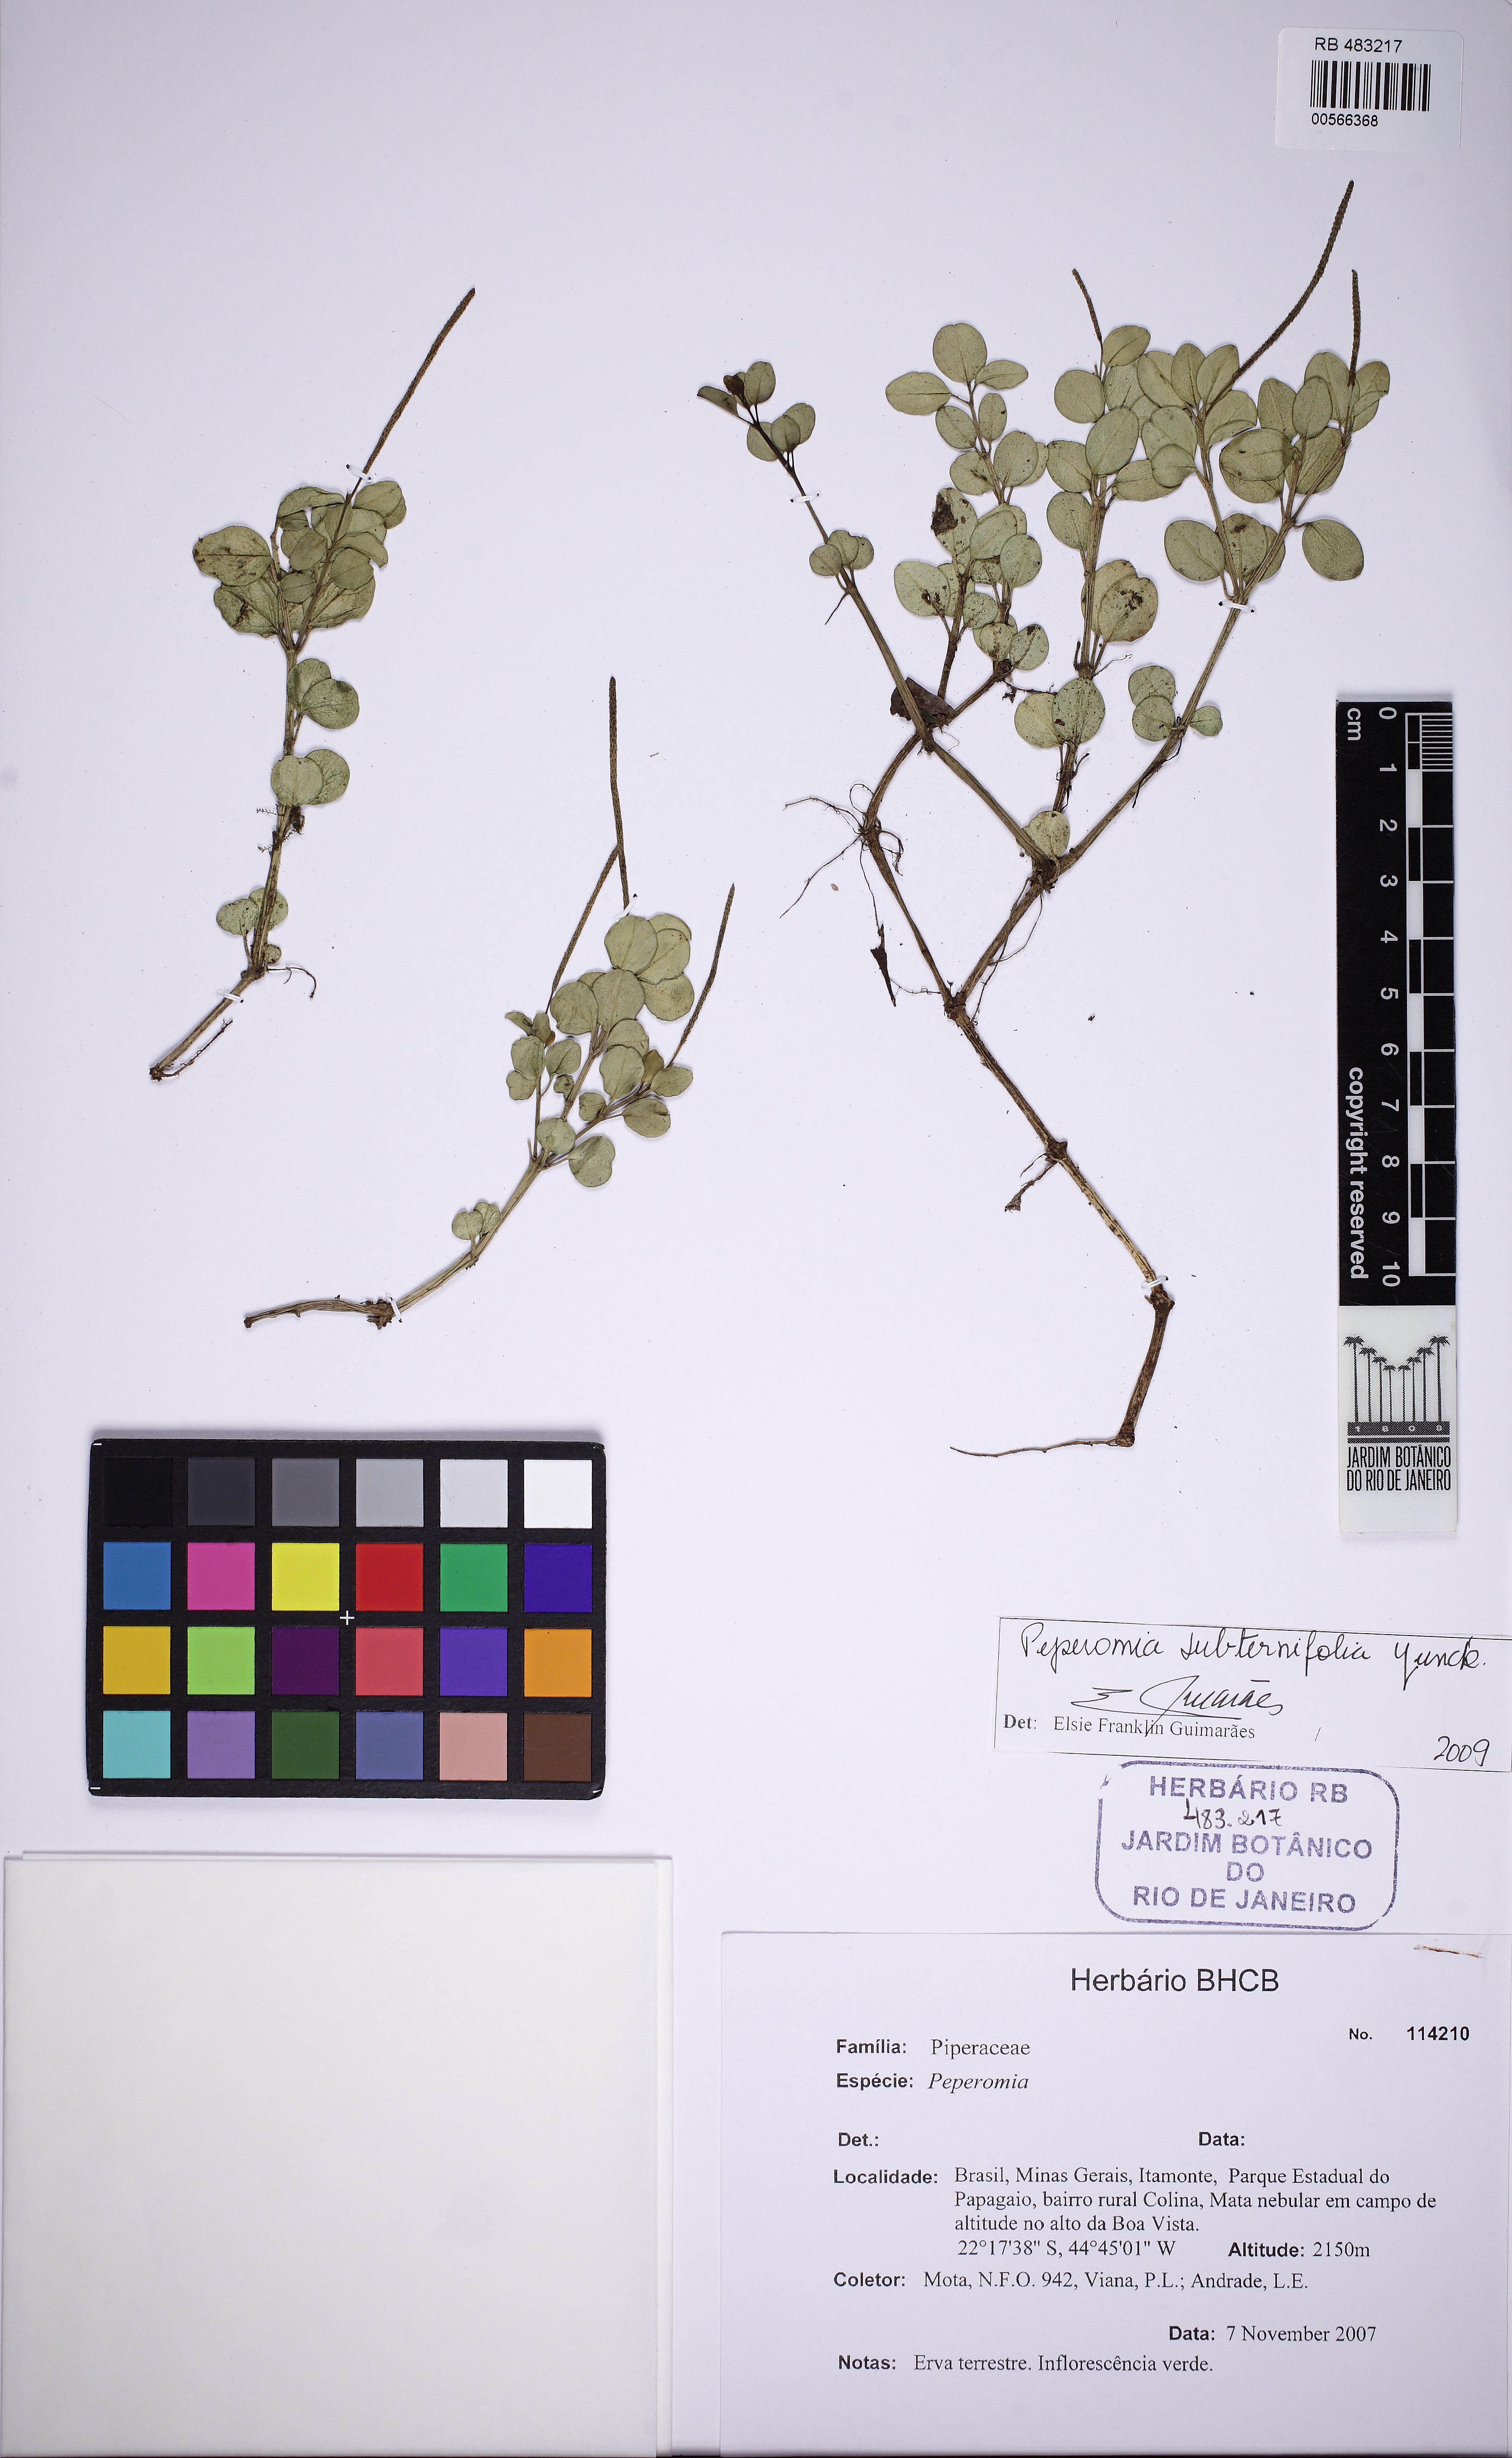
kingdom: Plantae
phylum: Tracheophyta
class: Magnoliopsida
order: Piperales
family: Piperaceae
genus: Peperomia
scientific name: Peperomia subternifolia
